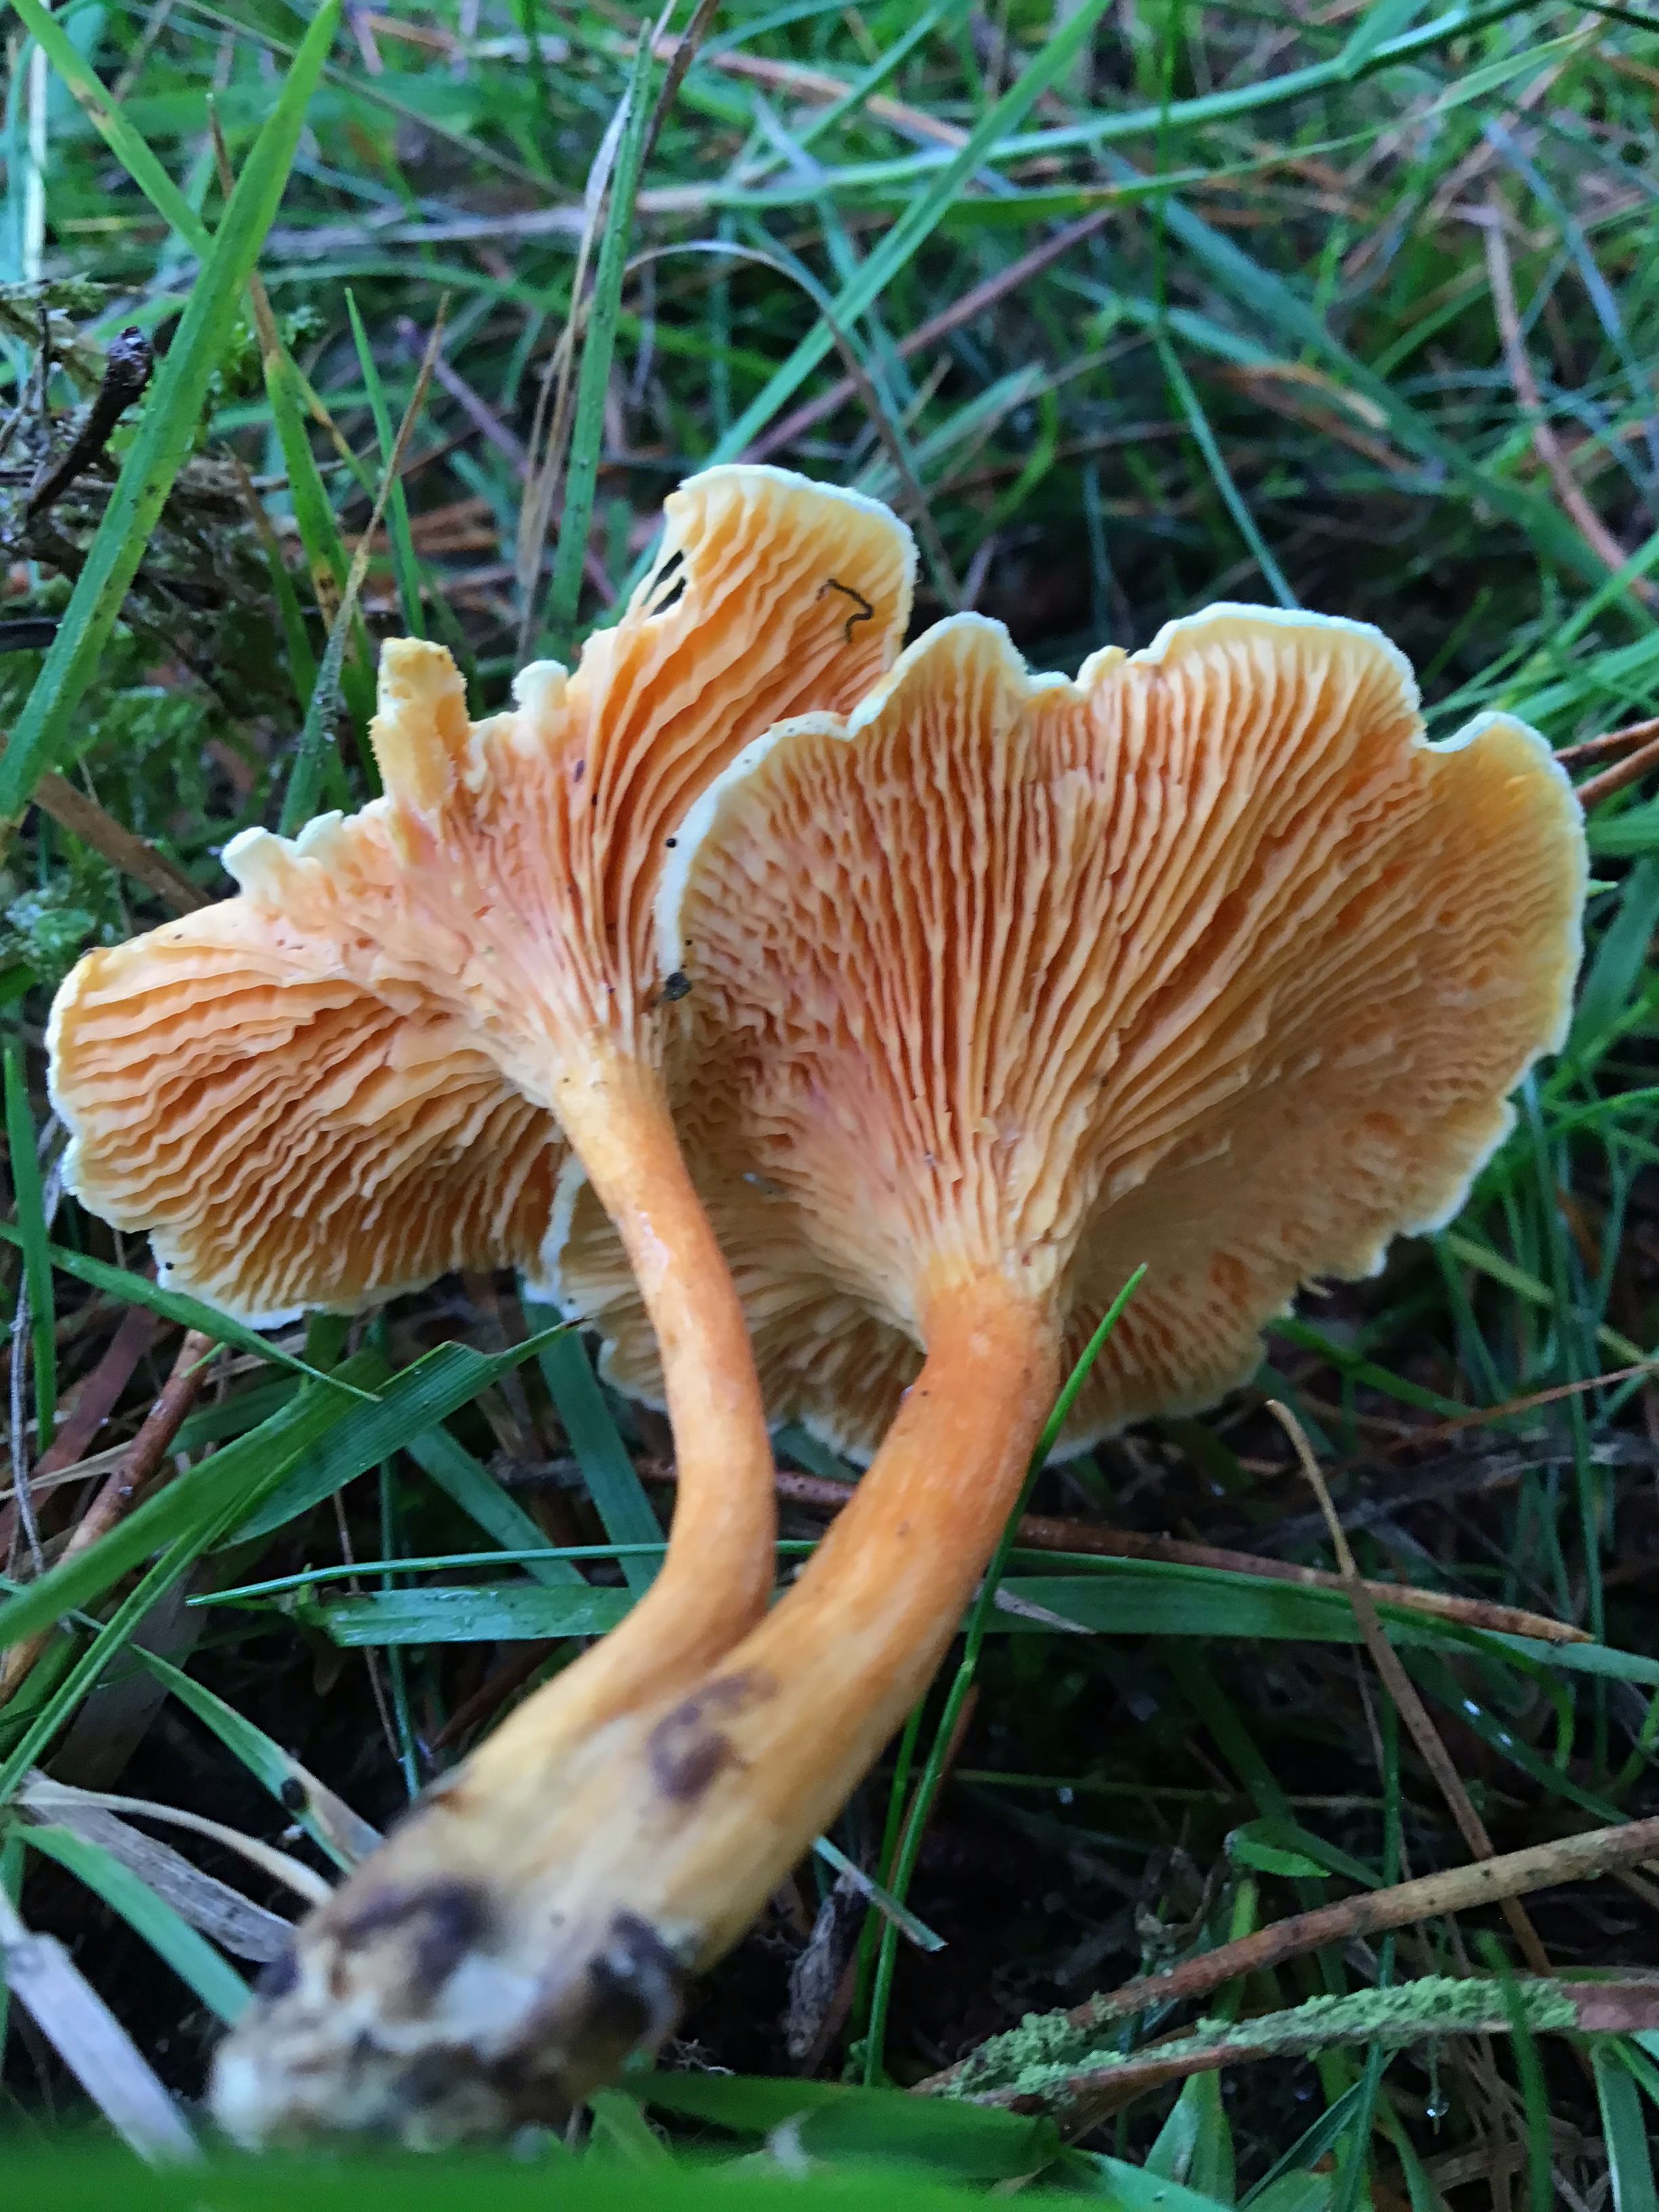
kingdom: Fungi
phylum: Basidiomycota
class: Agaricomycetes
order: Boletales
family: Hygrophoropsidaceae
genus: Hygrophoropsis
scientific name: Hygrophoropsis aurantiaca
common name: almindelig orangekantarel
